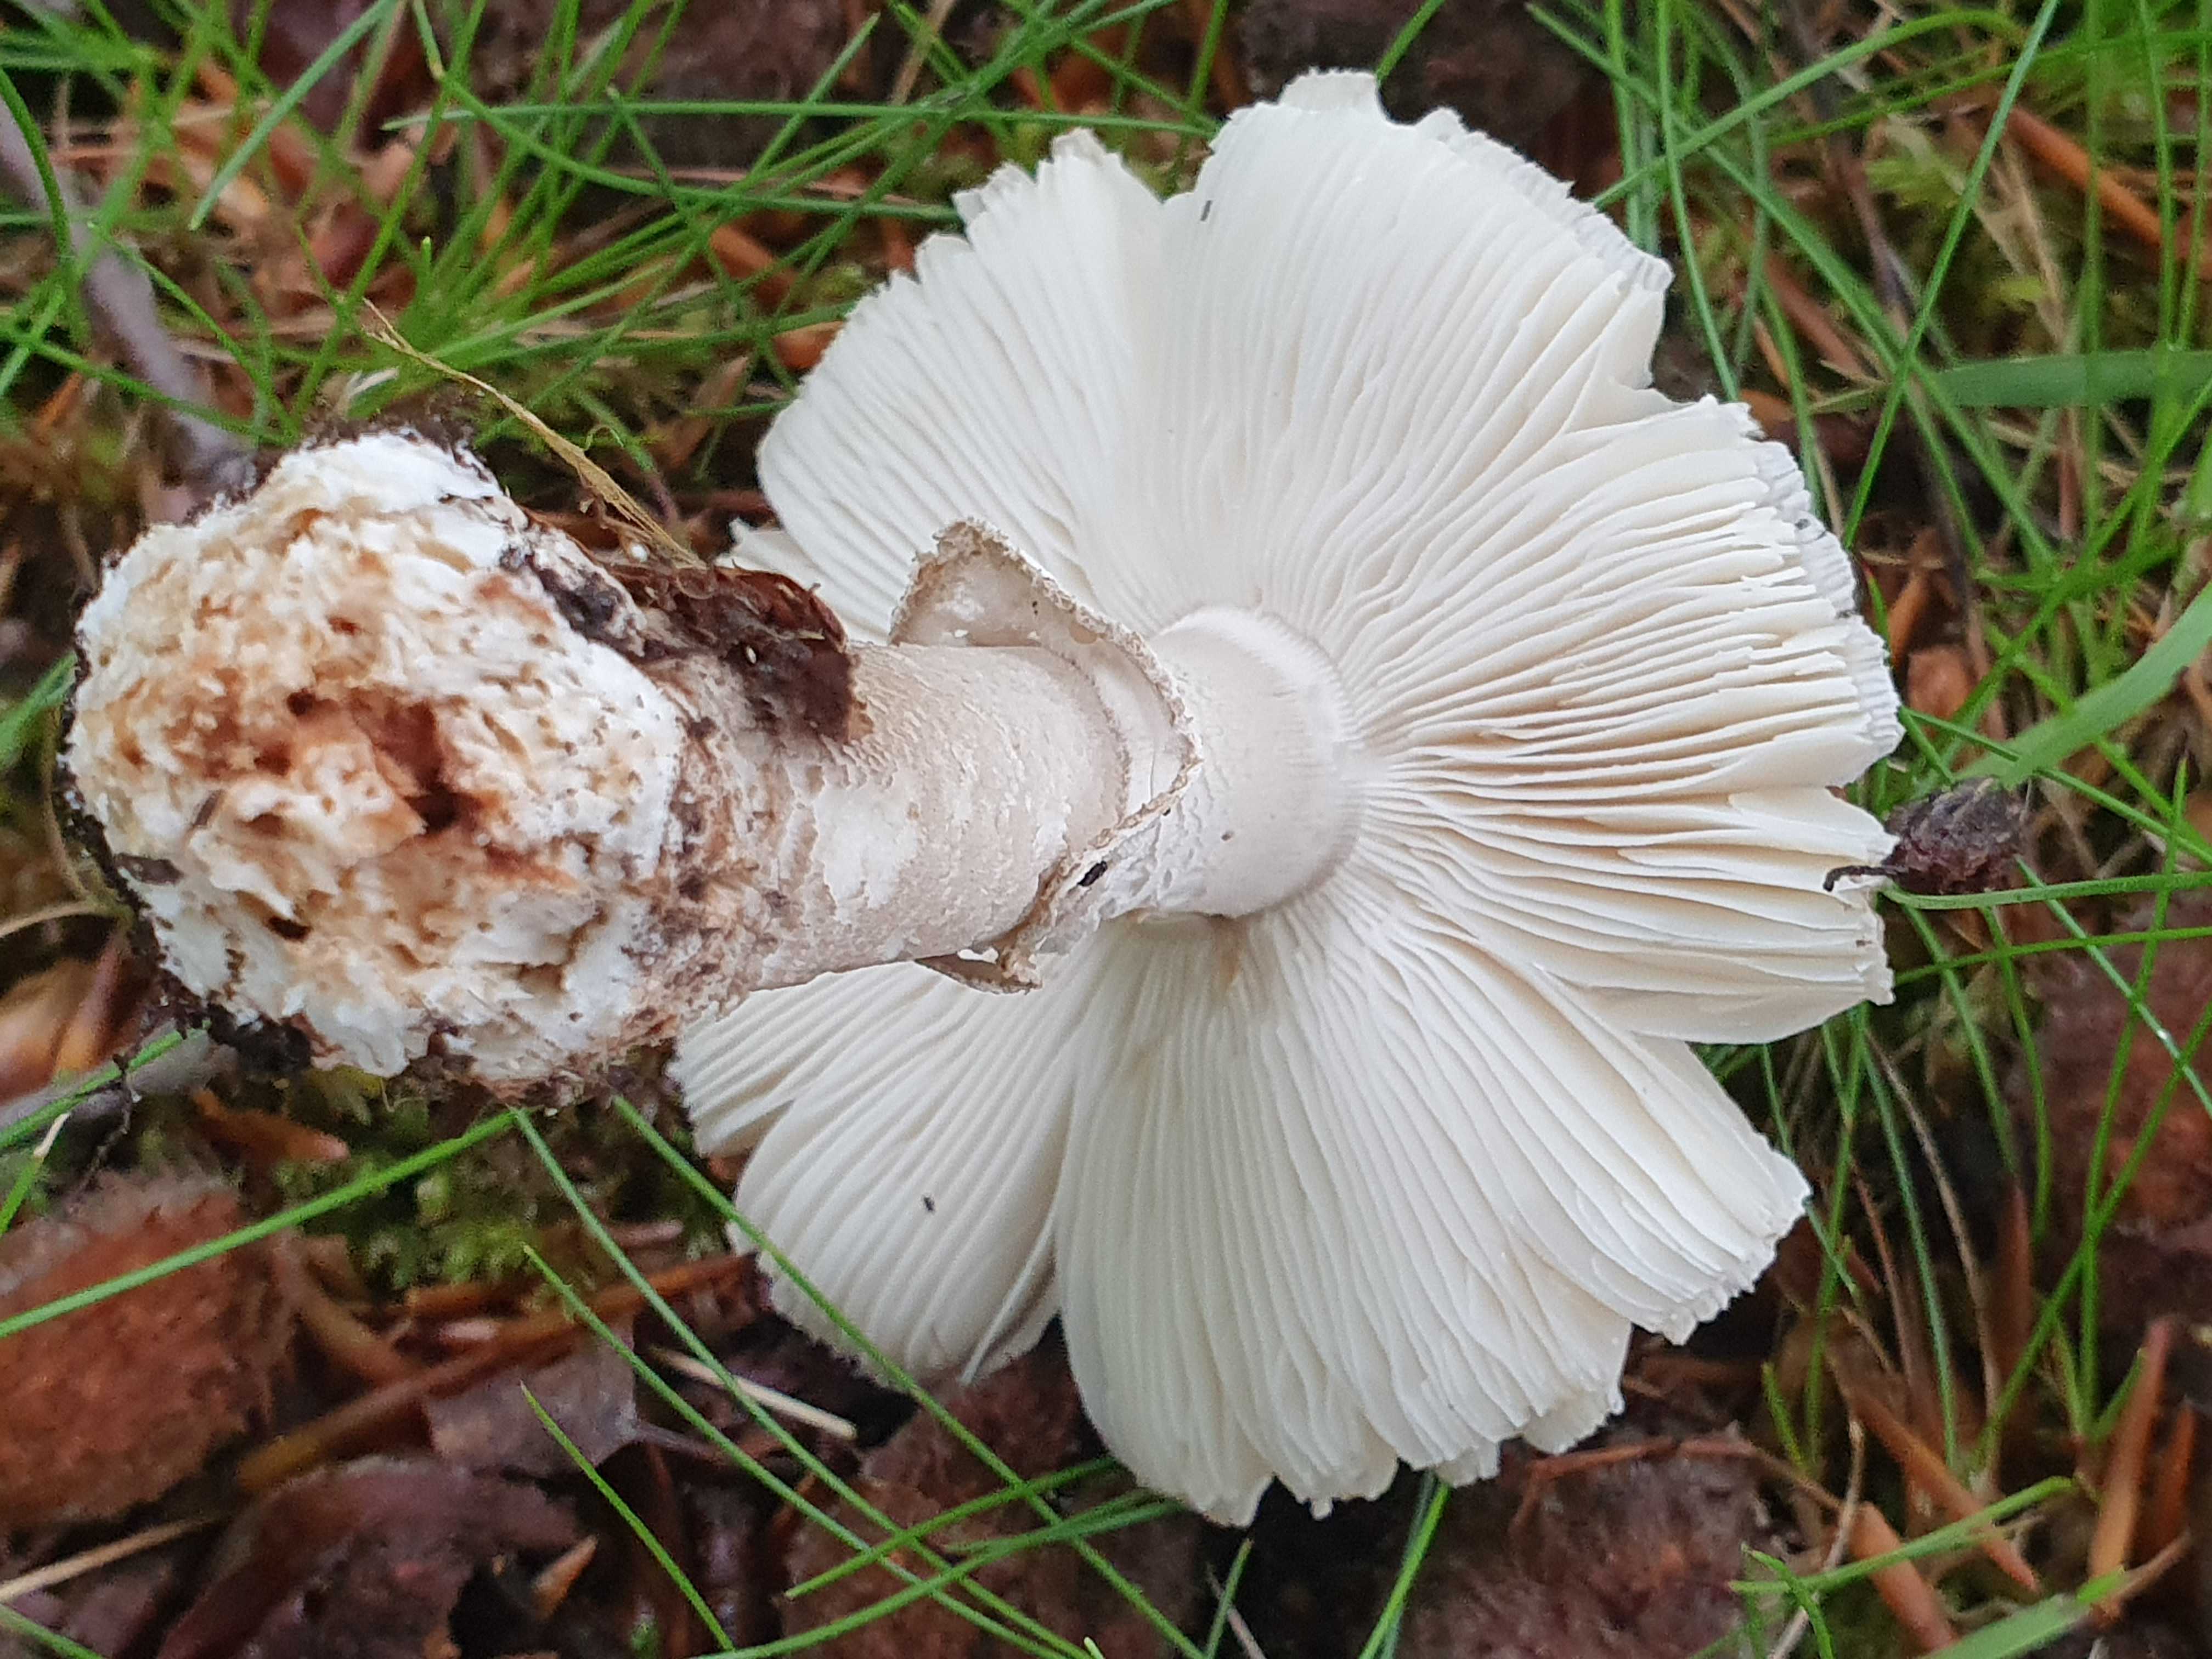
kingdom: Fungi
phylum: Basidiomycota
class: Agaricomycetes
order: Agaricales
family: Amanitaceae
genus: Amanita
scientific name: Amanita rubescens
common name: rødmende fluesvamp
